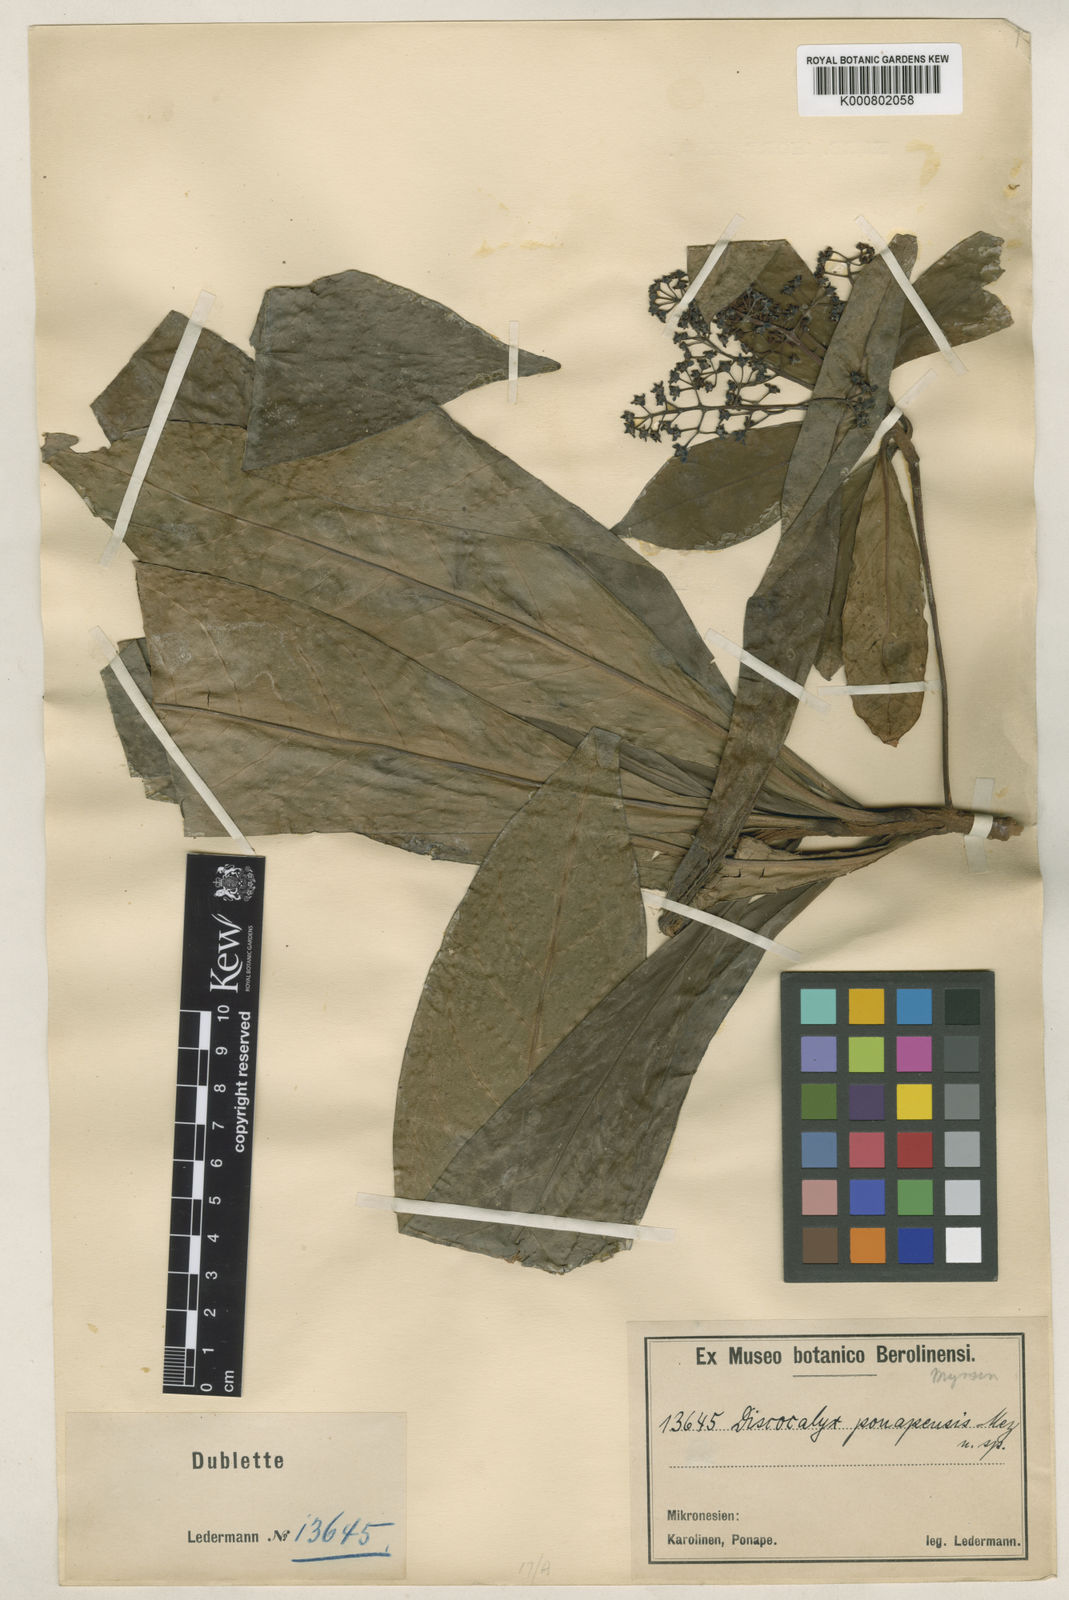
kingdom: Plantae
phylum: Tracheophyta
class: Magnoliopsida
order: Ericales
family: Primulaceae
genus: Discocalyx
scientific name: Discocalyx ponapensis
